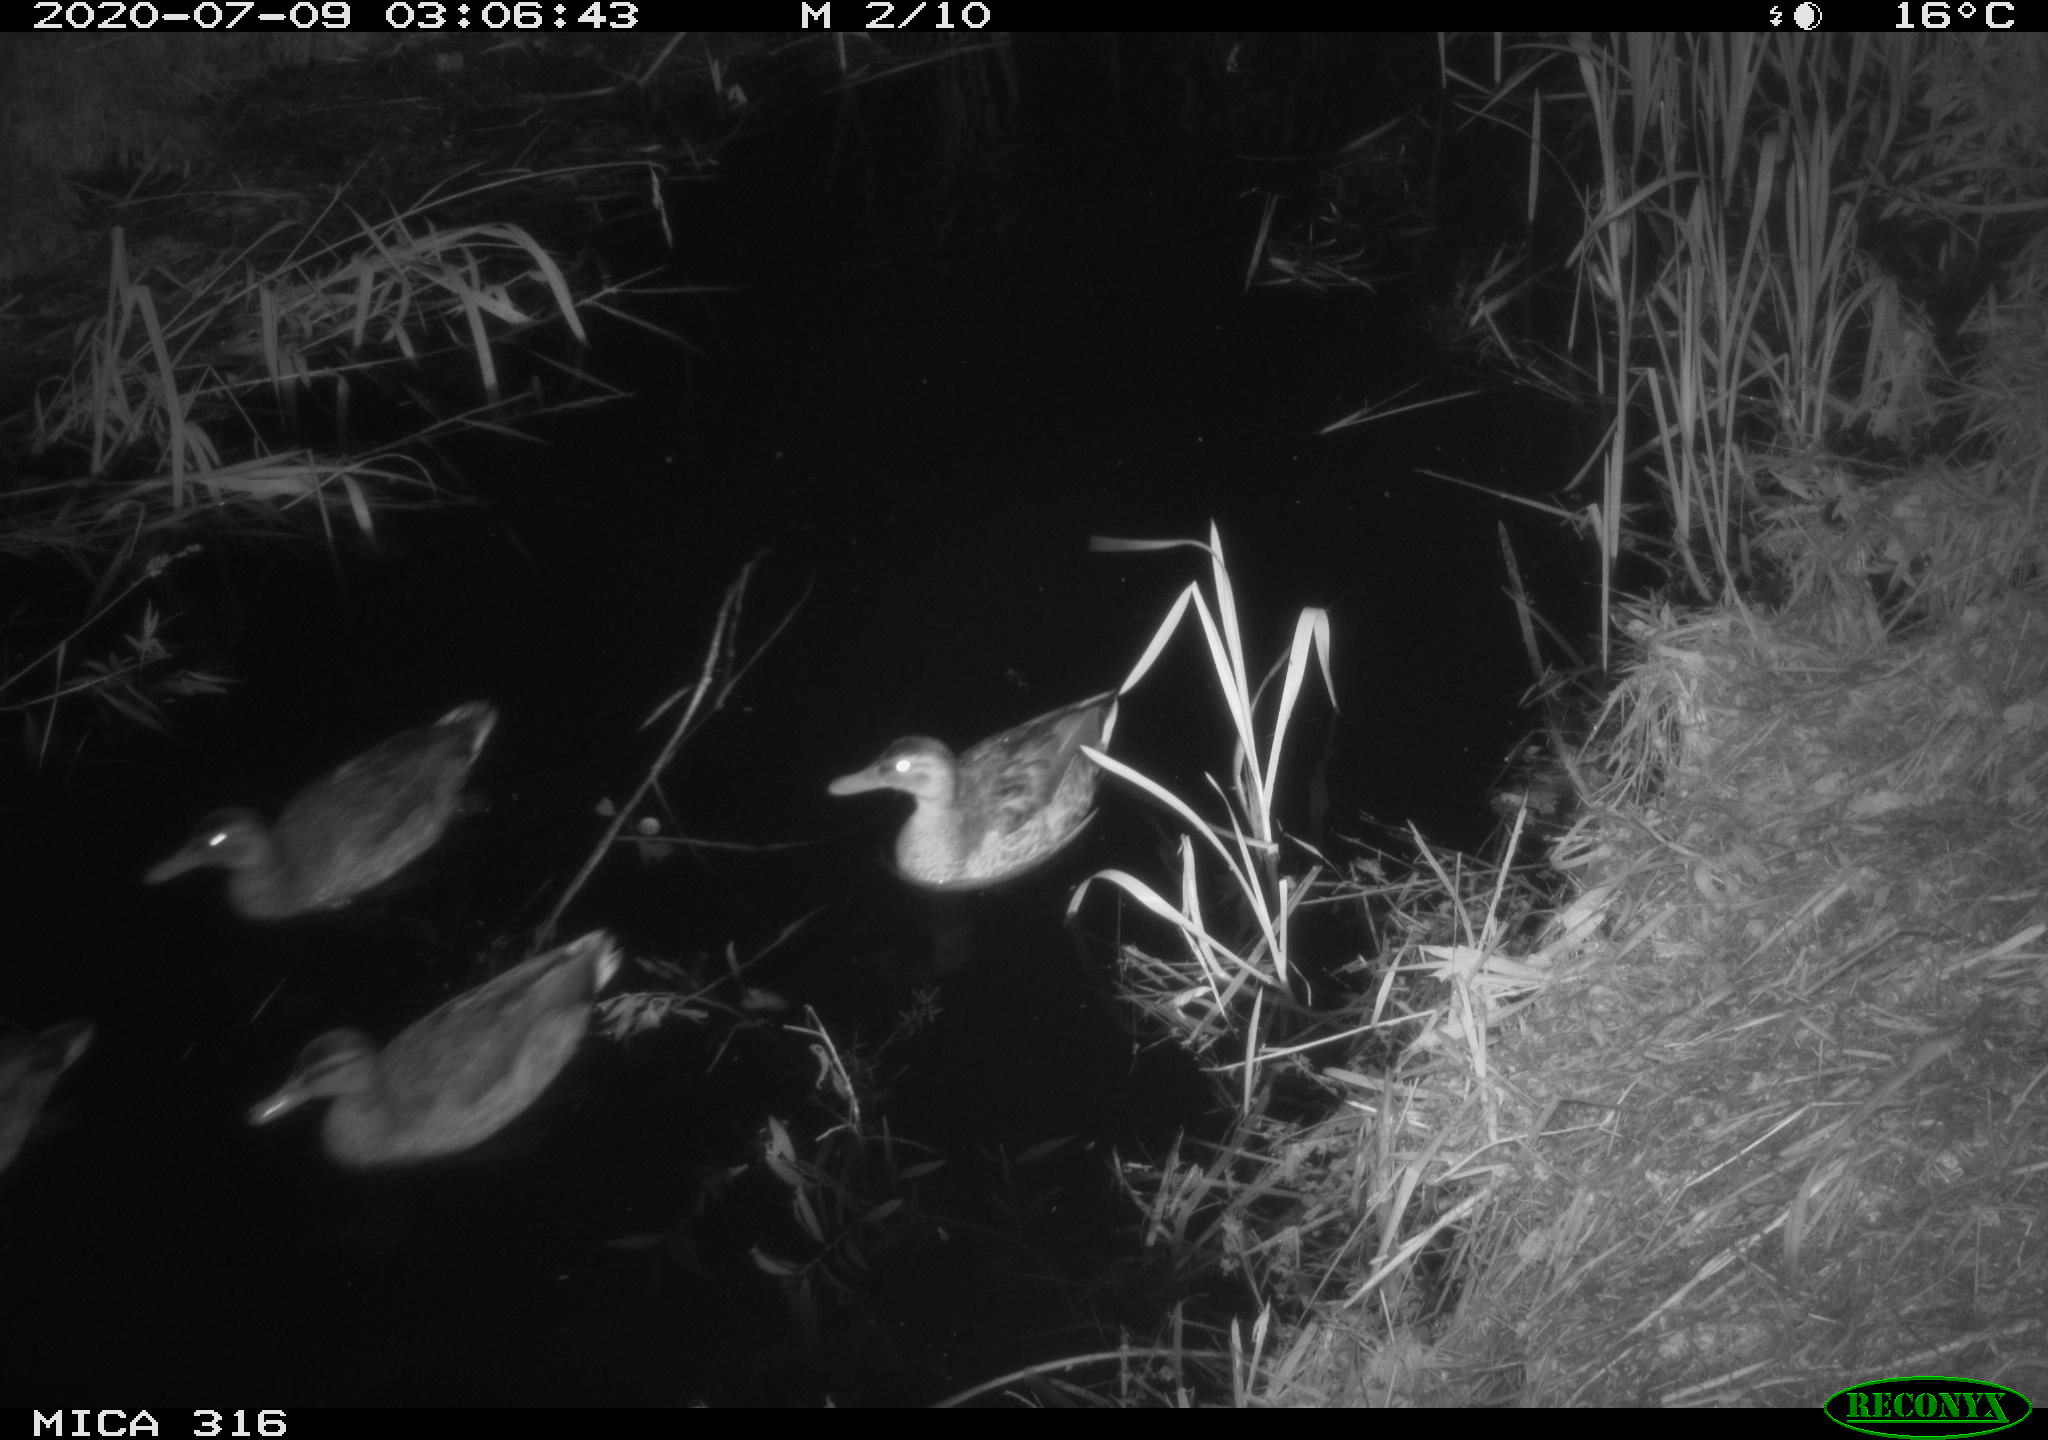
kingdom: Animalia
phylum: Chordata
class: Aves
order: Anseriformes
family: Anatidae
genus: Anas
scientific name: Anas platyrhynchos
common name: Mallard
